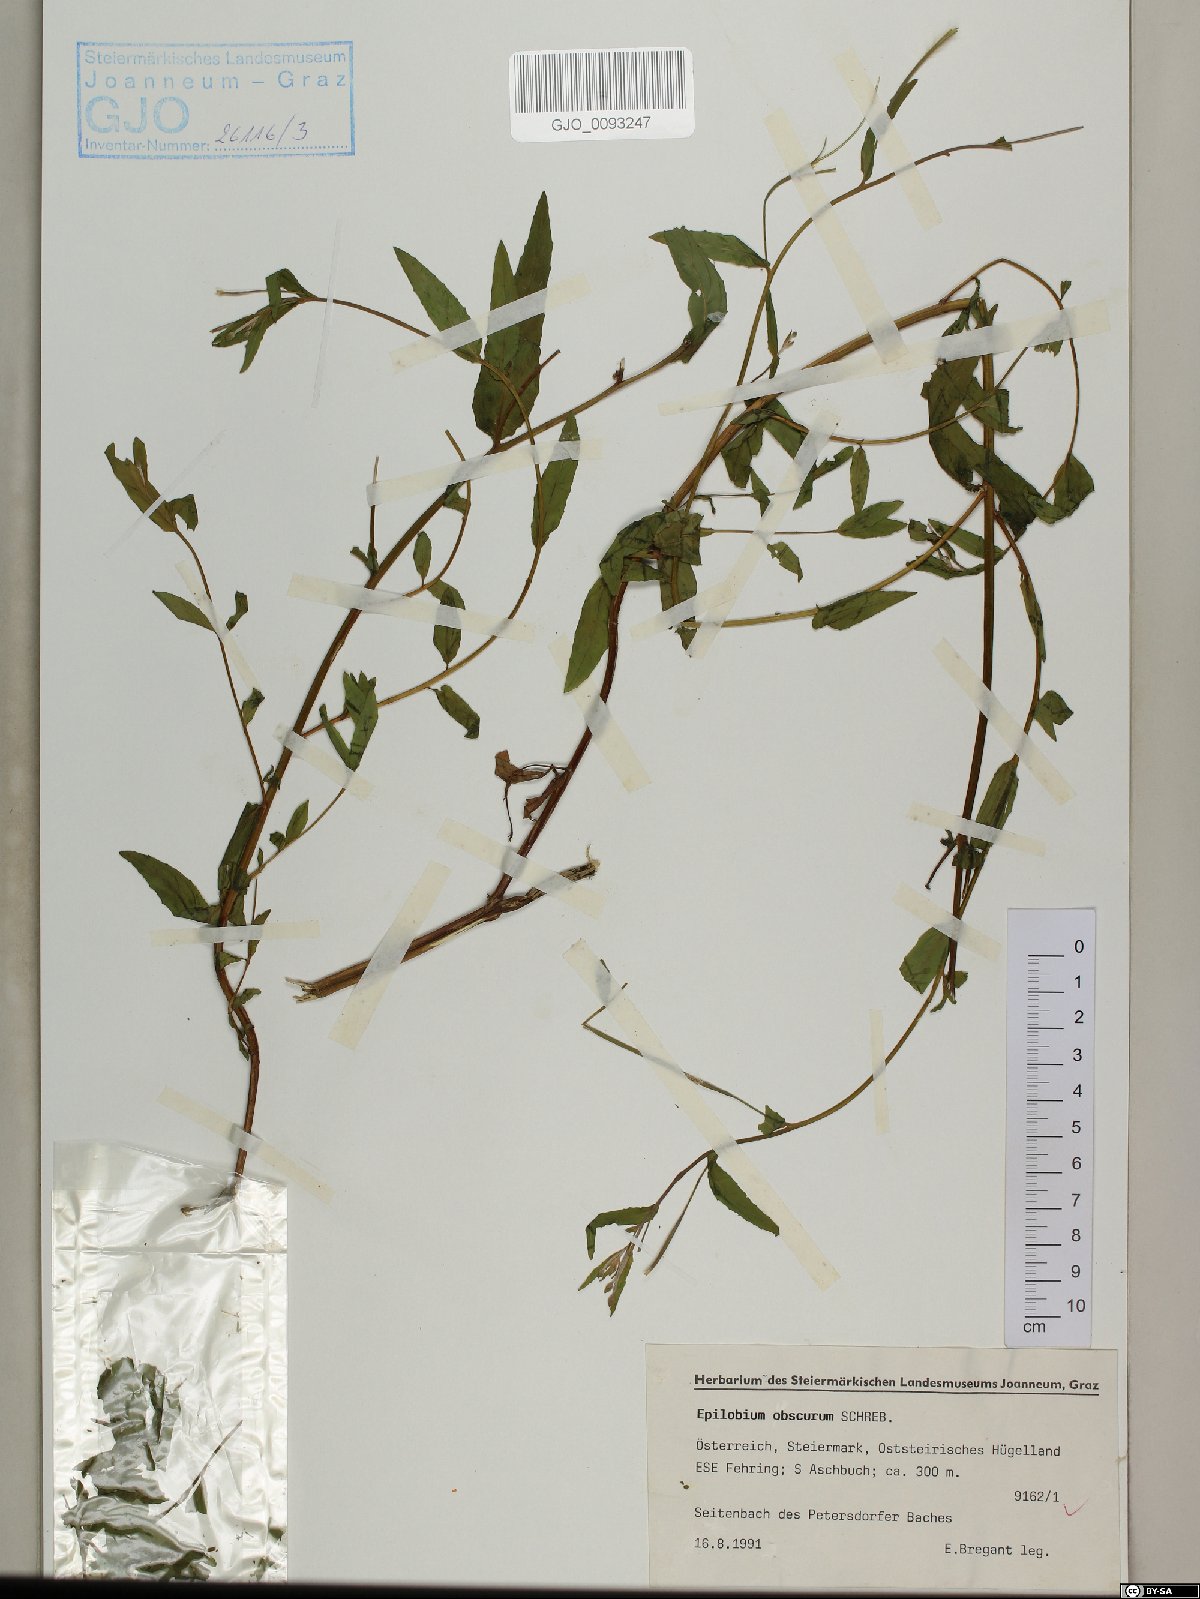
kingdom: Plantae
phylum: Tracheophyta
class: Magnoliopsida
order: Myrtales
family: Onagraceae
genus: Epilobium
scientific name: Epilobium obscurum
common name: Short-fruited willowherb
